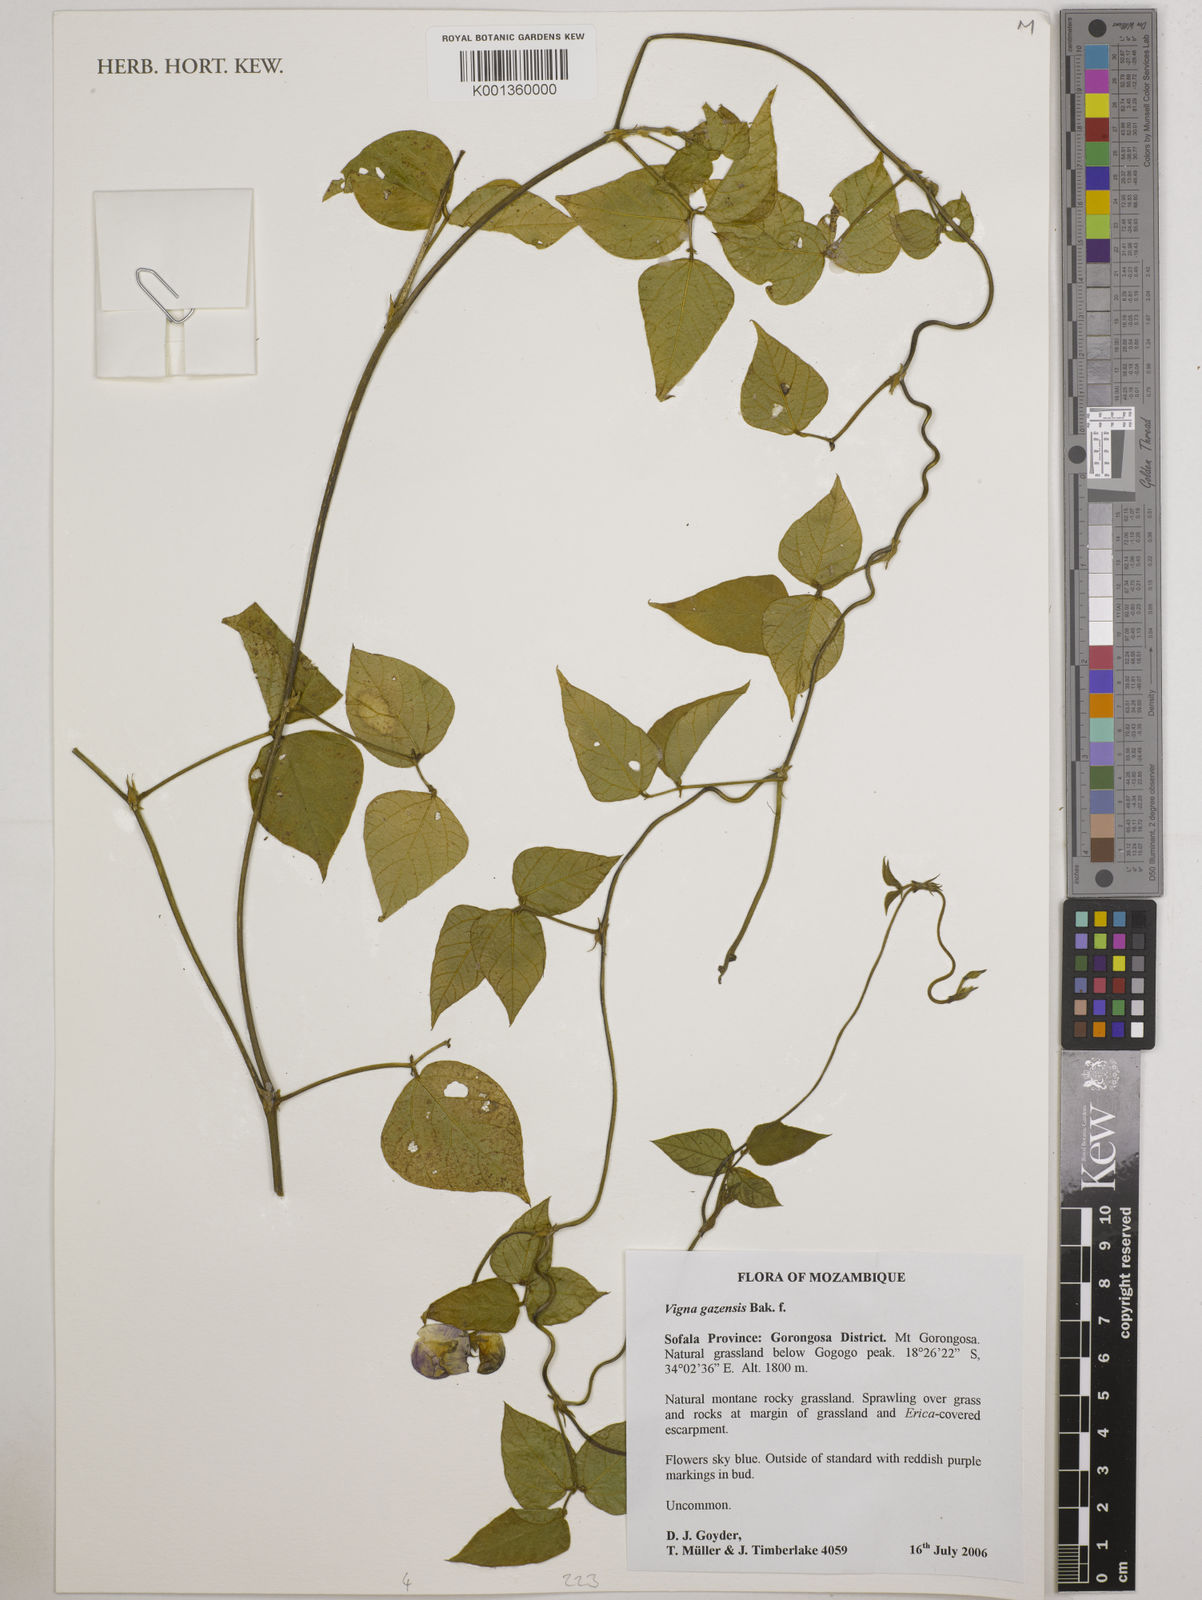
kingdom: Plantae
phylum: Tracheophyta
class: Magnoliopsida
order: Fabales
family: Fabaceae
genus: Vigna
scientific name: Vigna gazensis
